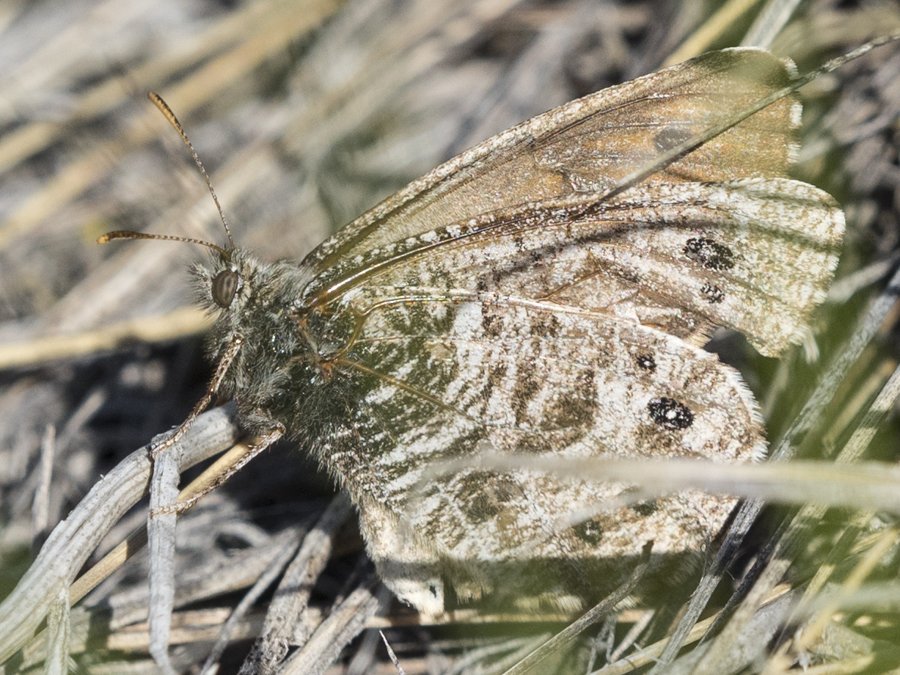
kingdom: Animalia
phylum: Arthropoda
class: Insecta
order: Lepidoptera
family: Nymphalidae
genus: Oeneis
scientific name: Oeneis uhleri
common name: Uhler's Arctic
